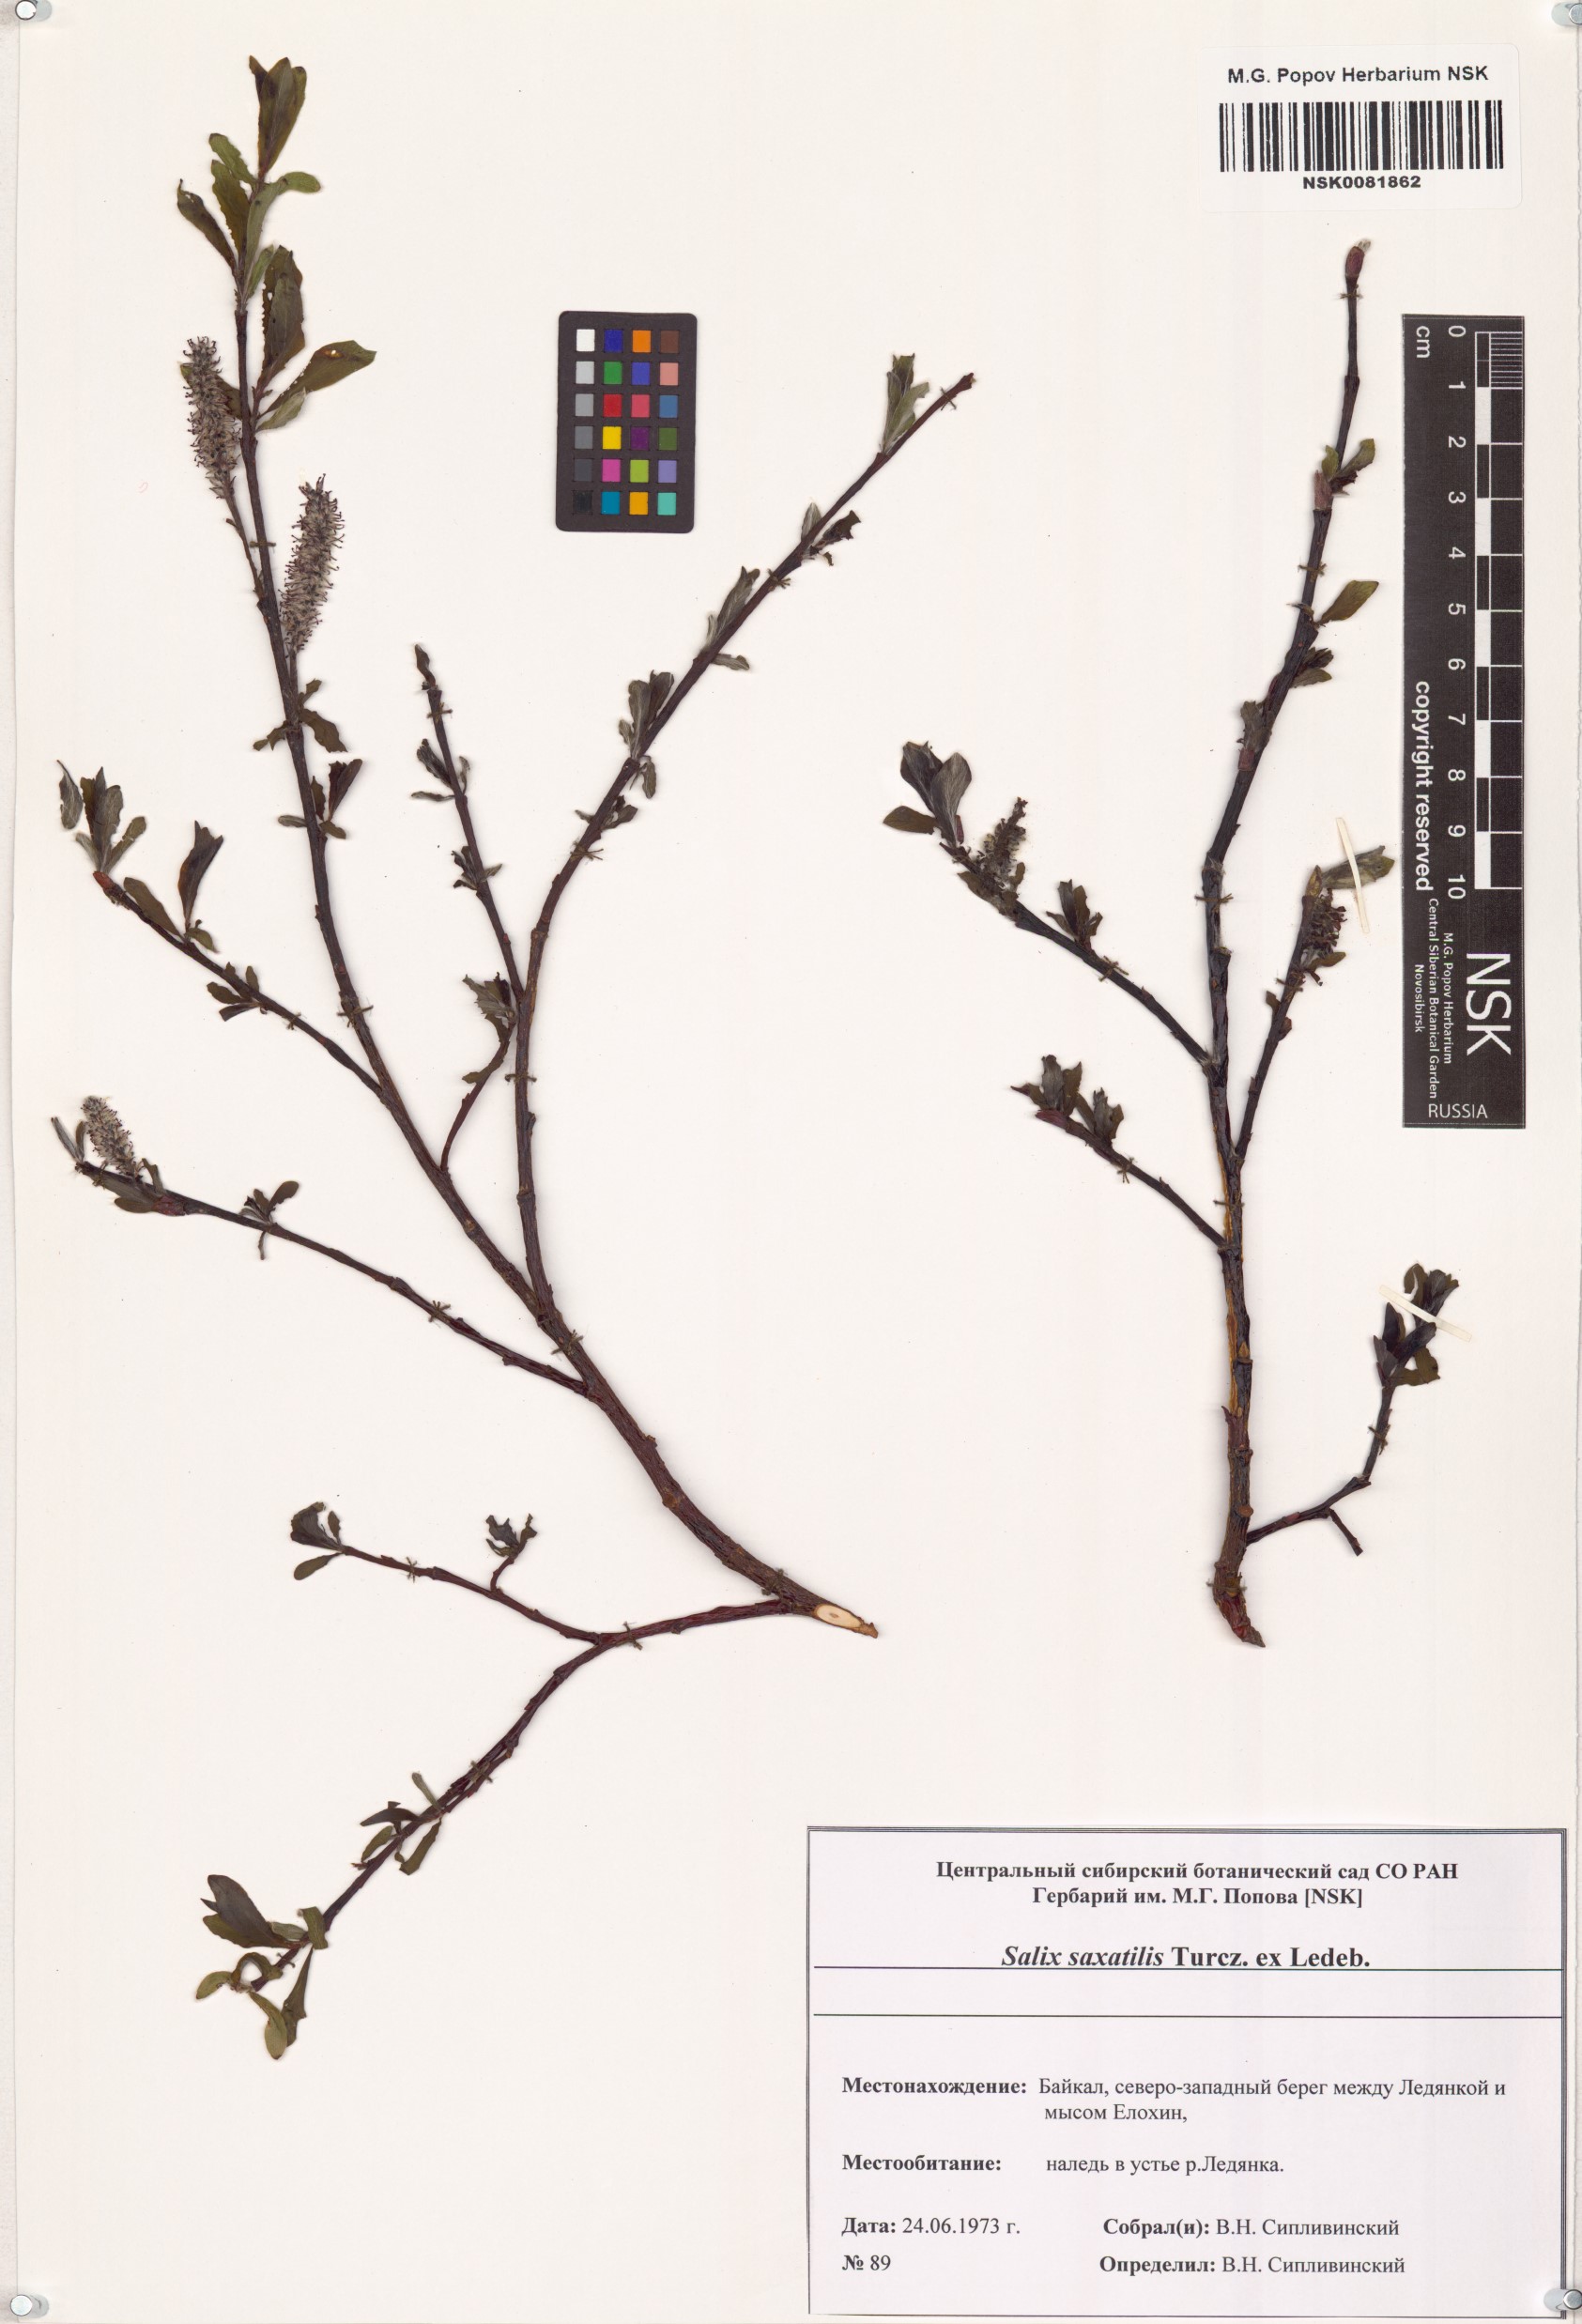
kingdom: Plantae
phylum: Tracheophyta
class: Magnoliopsida
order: Malpighiales
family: Salicaceae
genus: Salix
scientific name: Salix saxatilis
